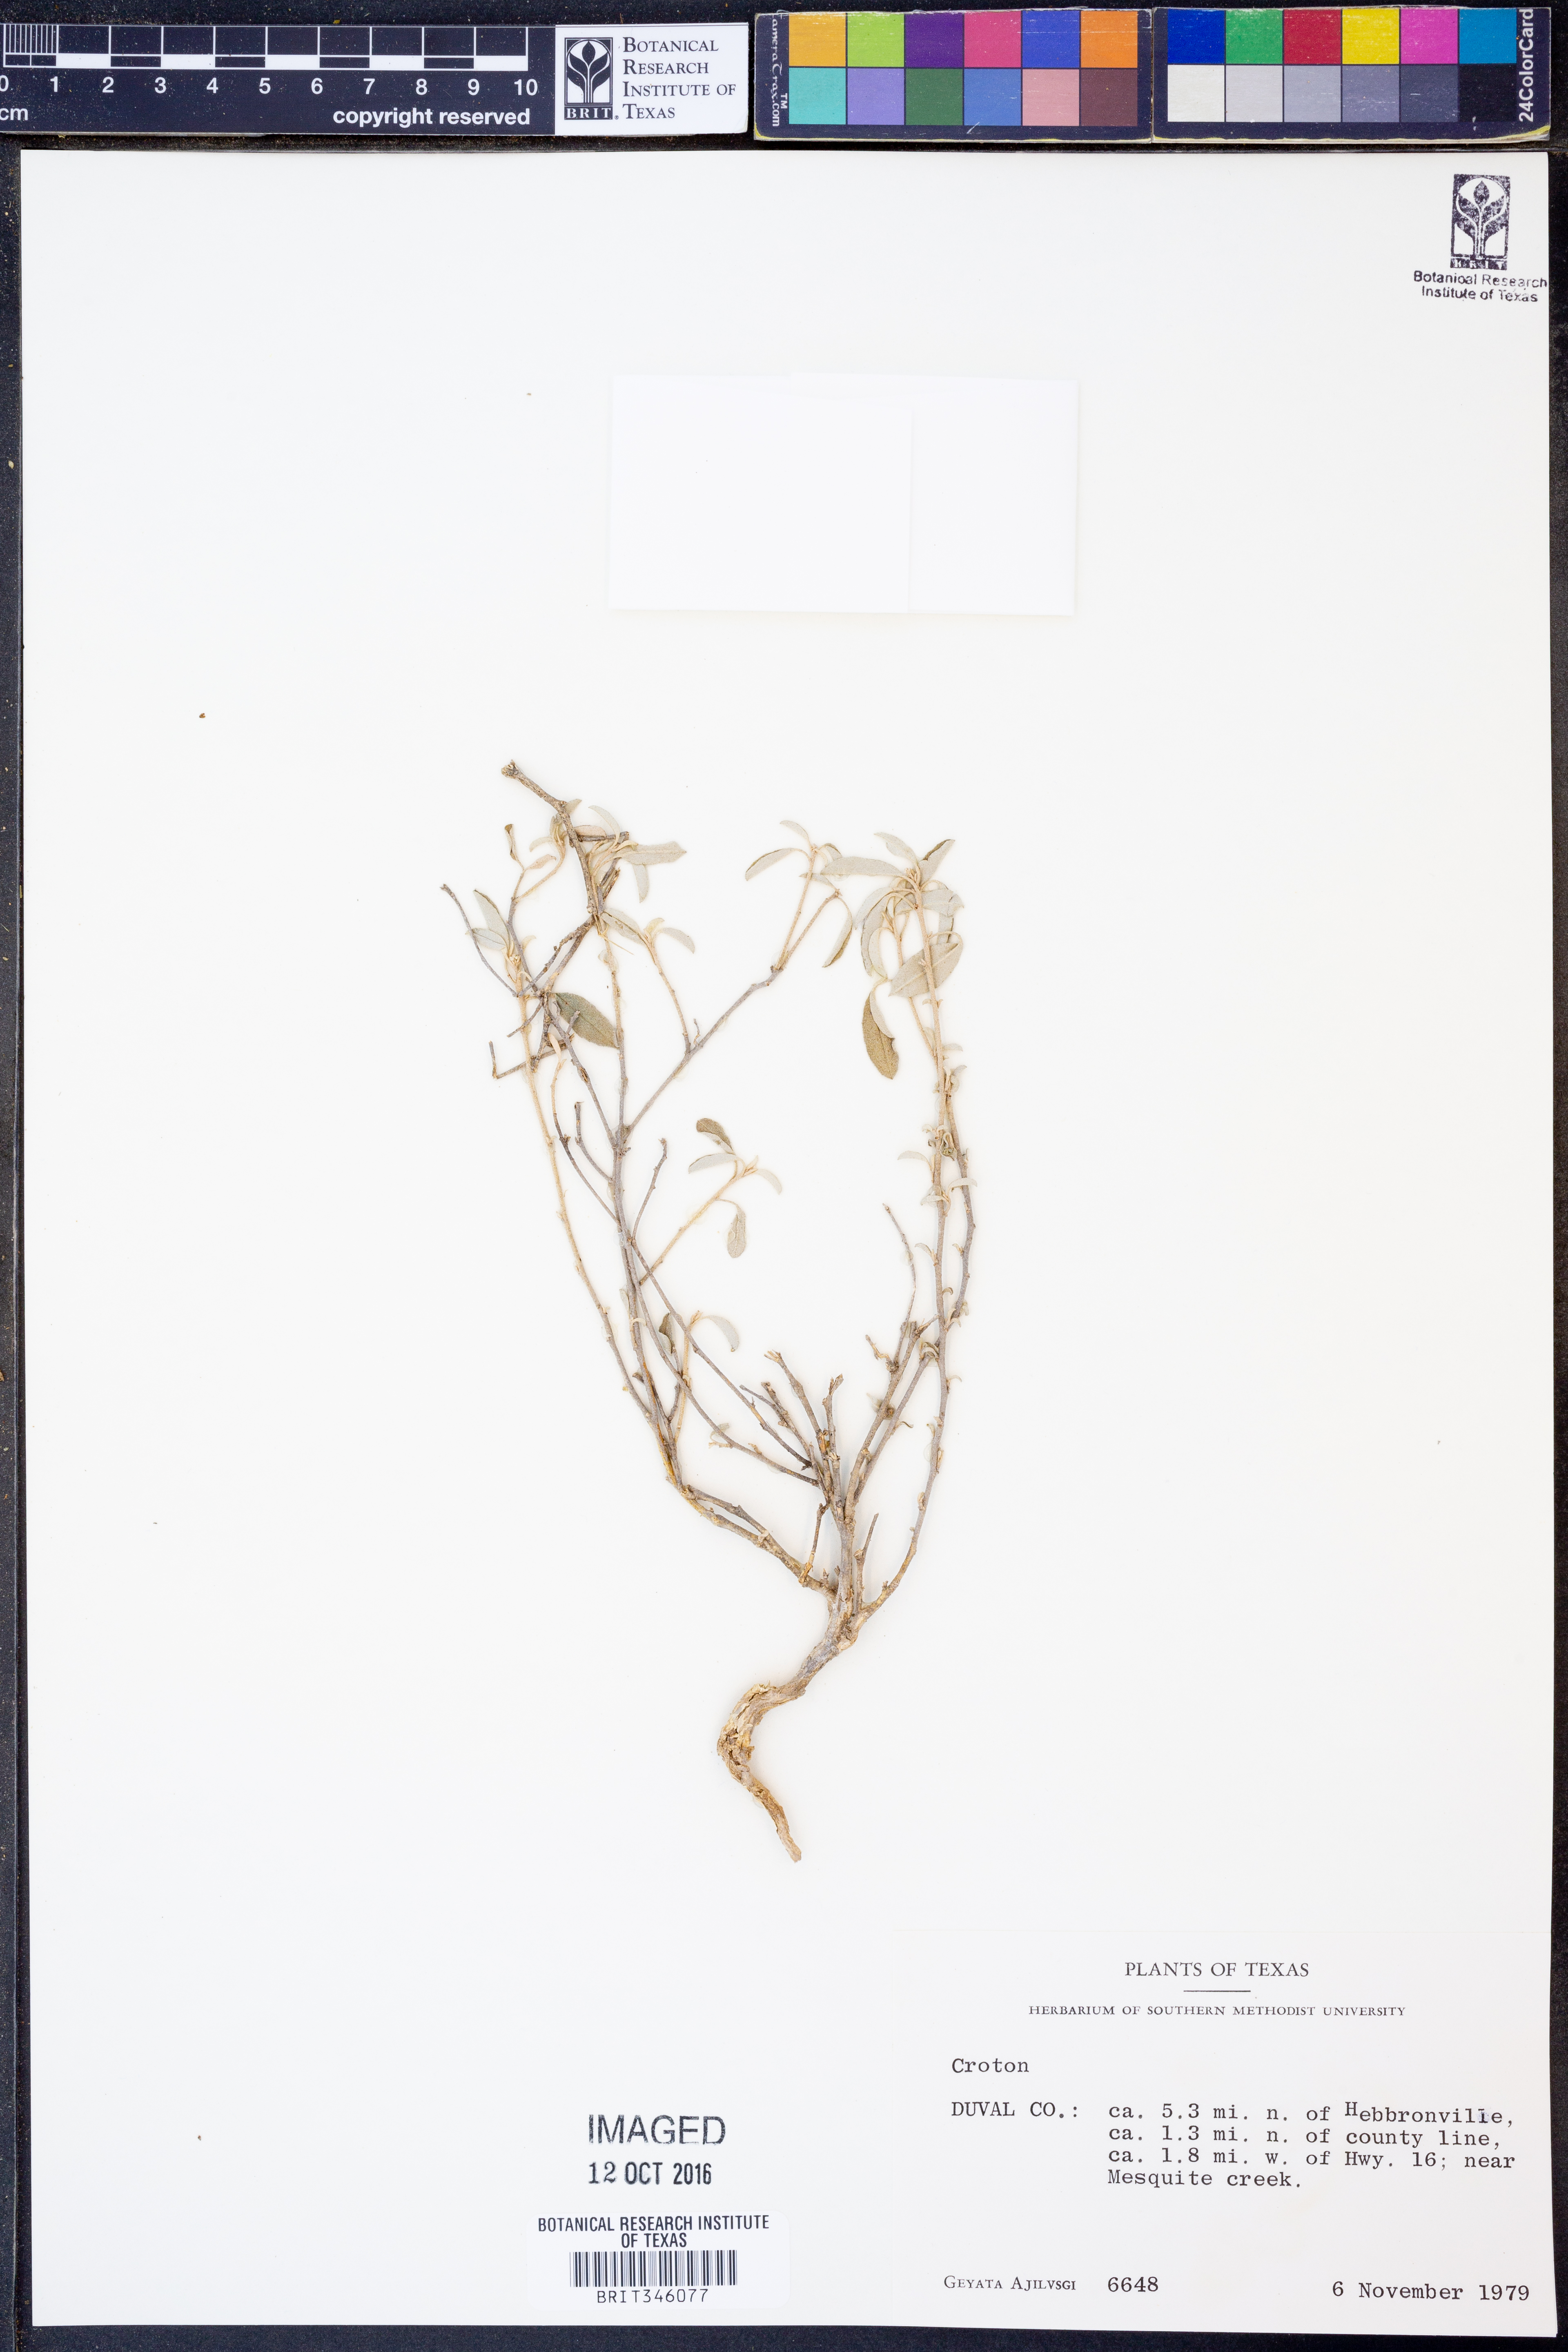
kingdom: Plantae
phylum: Tracheophyta
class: Magnoliopsida
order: Malpighiales
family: Euphorbiaceae
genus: Croton
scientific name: Croton
